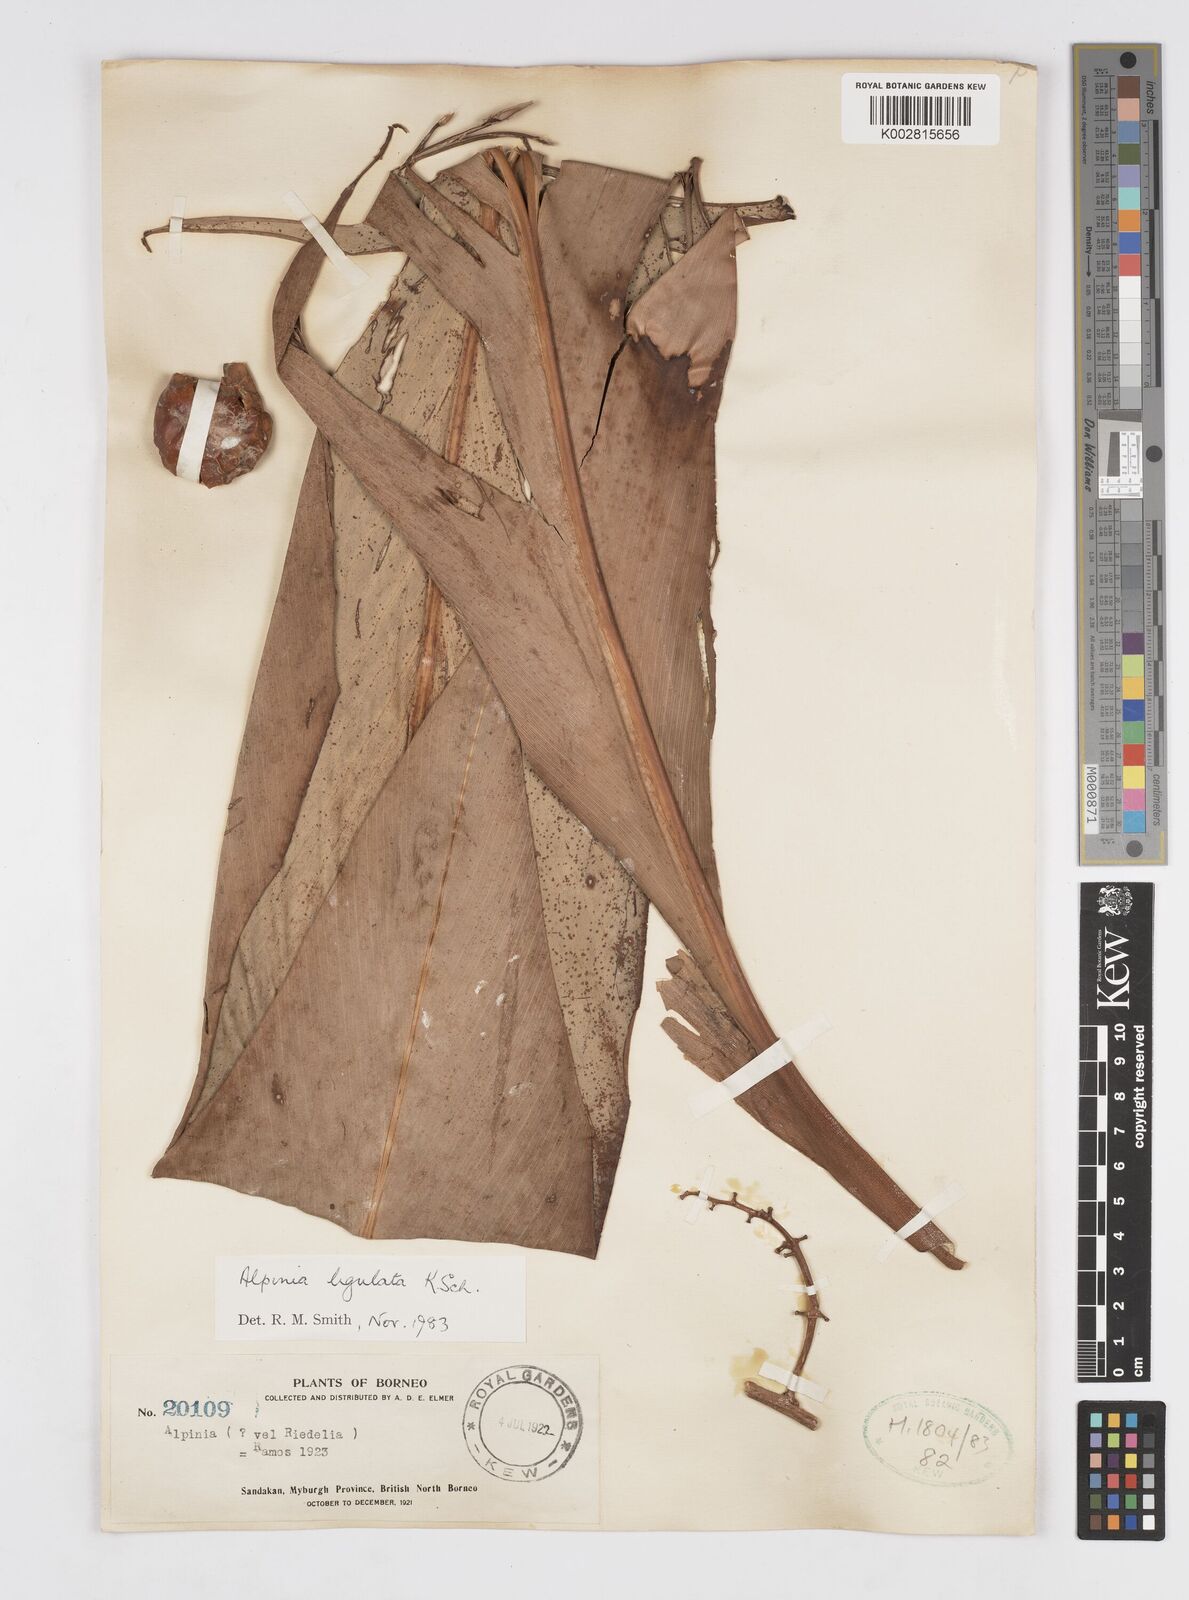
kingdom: Plantae
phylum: Tracheophyta
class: Liliopsida
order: Zingiberales
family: Zingiberaceae
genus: Alpinia
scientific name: Alpinia ligulata
